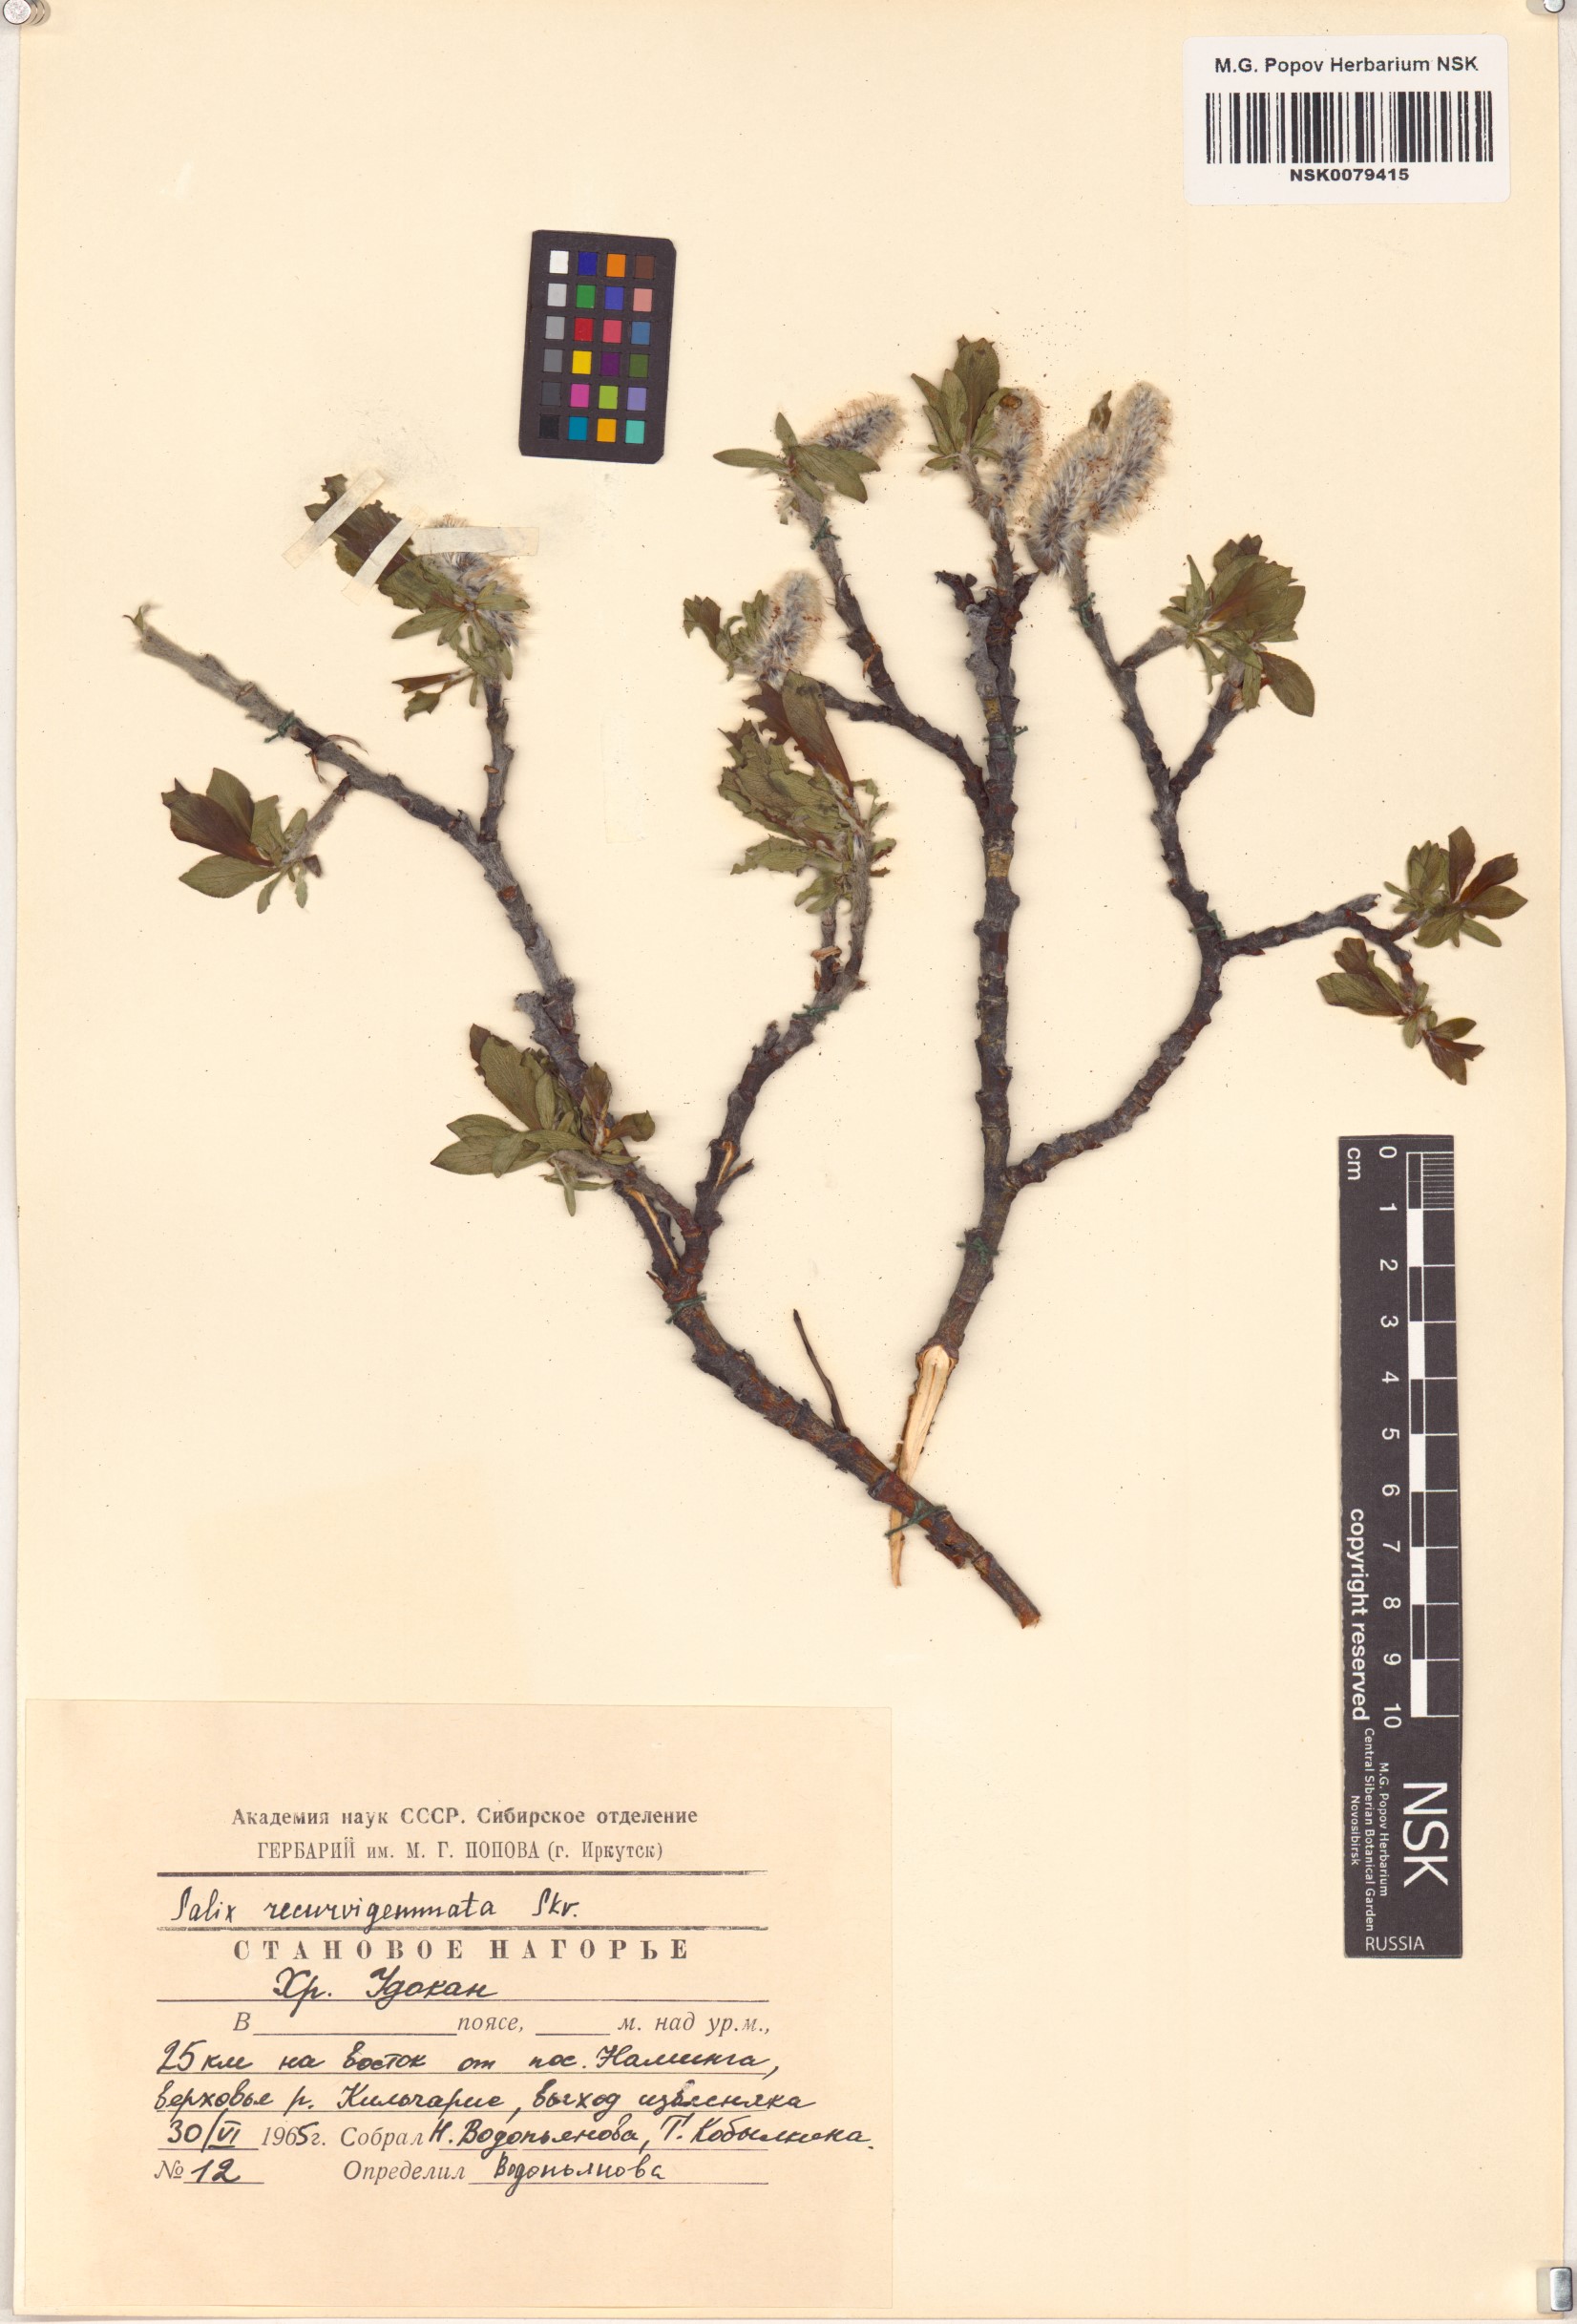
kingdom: Plantae
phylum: Tracheophyta
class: Magnoliopsida
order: Malpighiales
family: Salicaceae
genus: Salix
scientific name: Salix recurvigemmata
